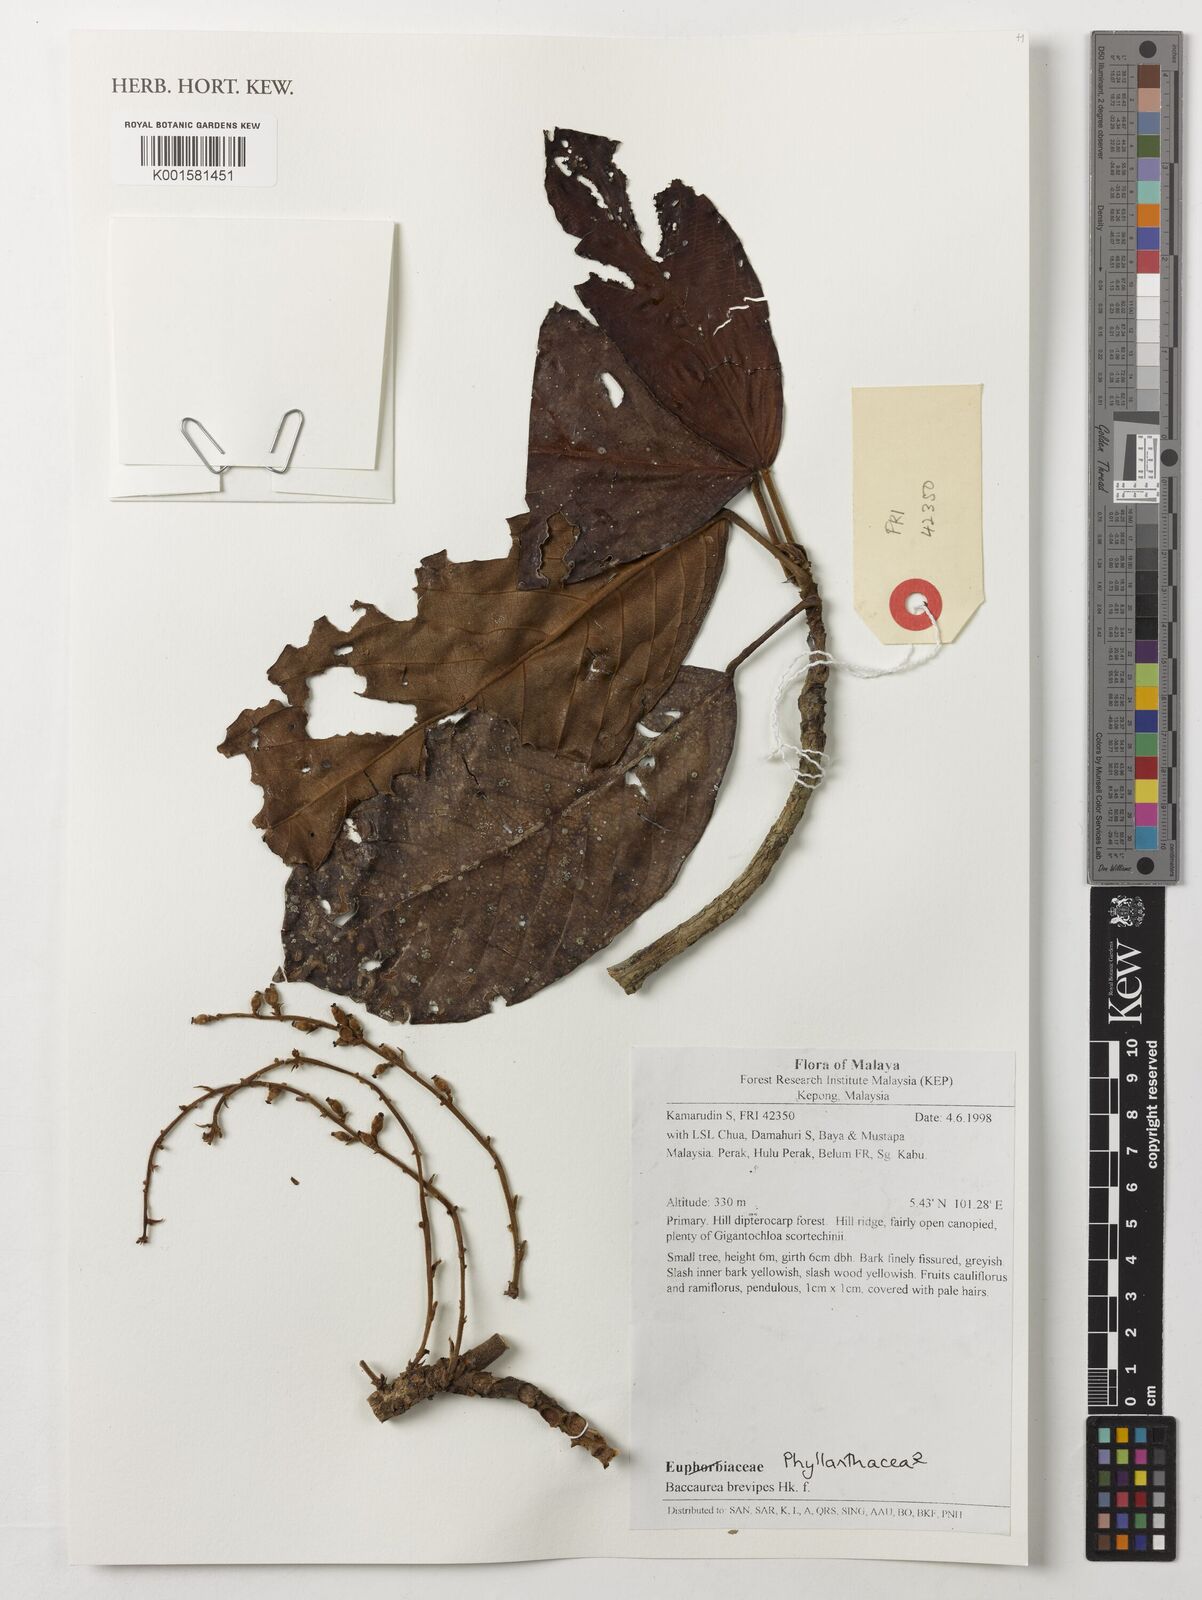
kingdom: Plantae
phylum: Tracheophyta
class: Magnoliopsida
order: Malpighiales
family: Phyllanthaceae
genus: Baccaurea
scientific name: Baccaurea brevipes
